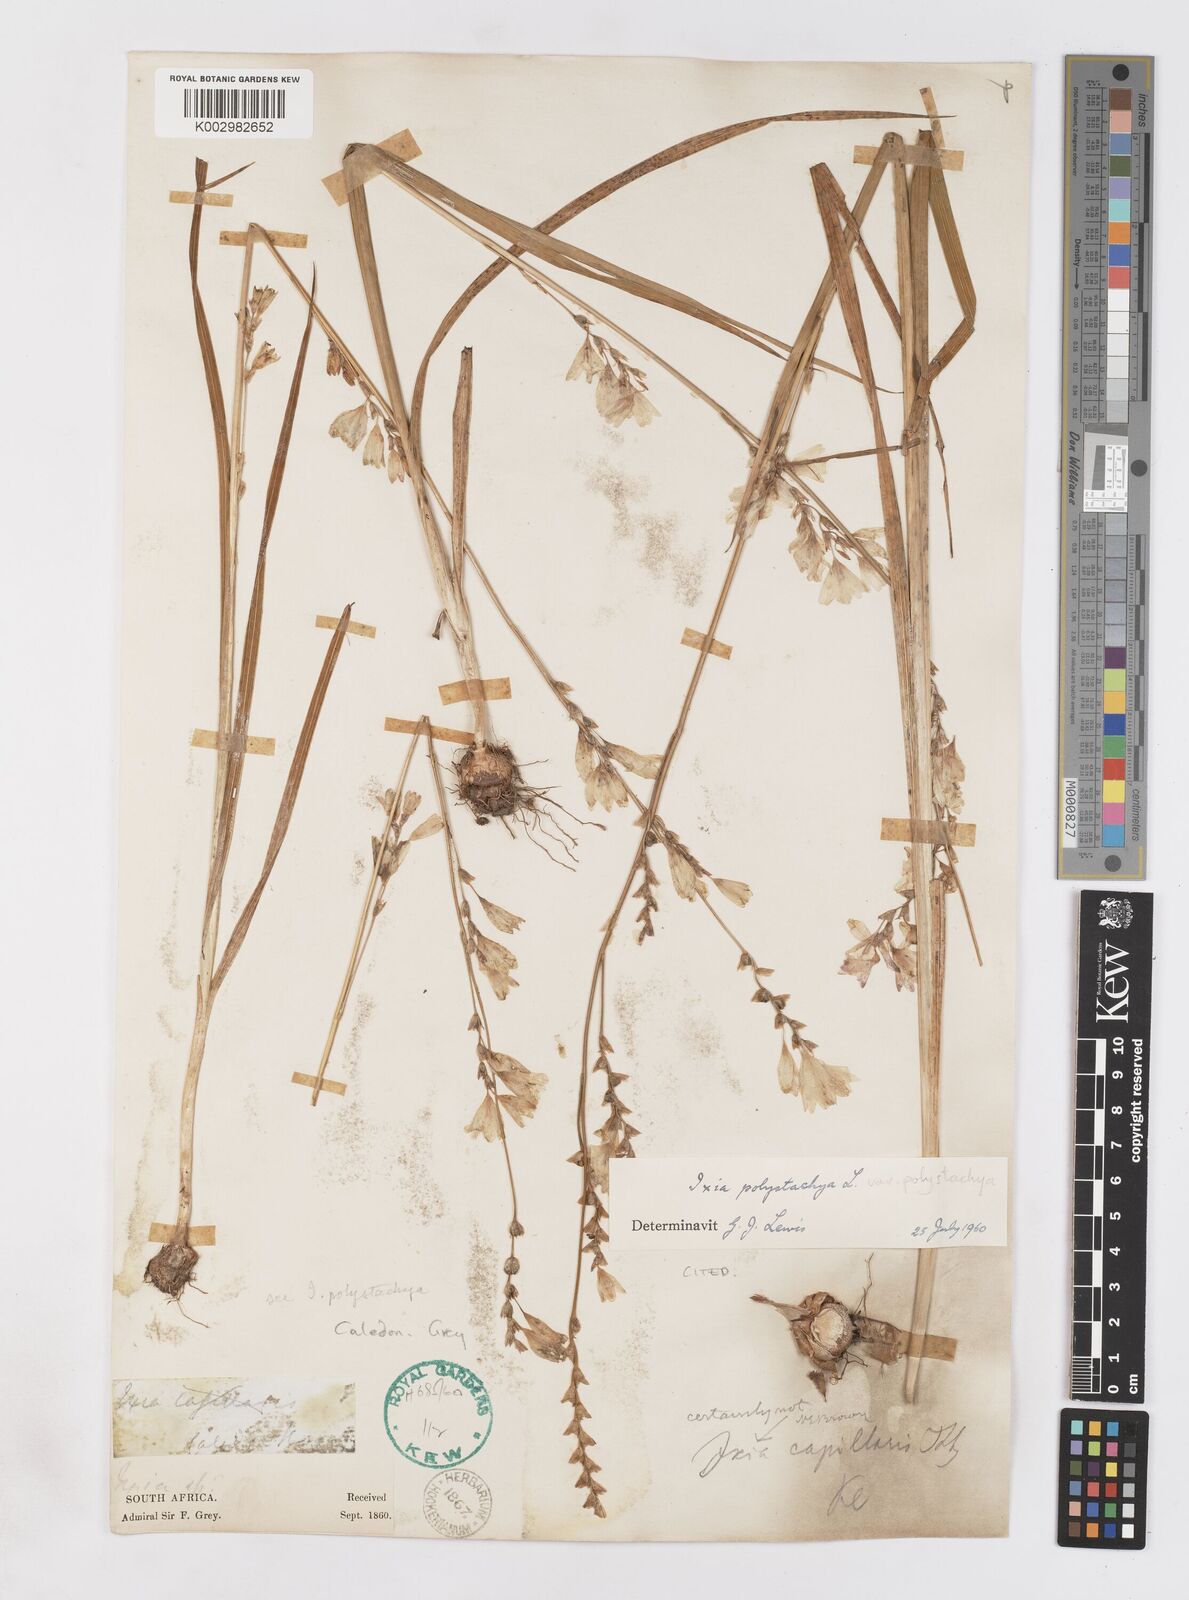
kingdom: Plantae
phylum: Tracheophyta
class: Liliopsida
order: Asparagales
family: Iridaceae
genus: Ixia
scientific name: Ixia polystachya
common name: White-and-yellow-flower cornlily
